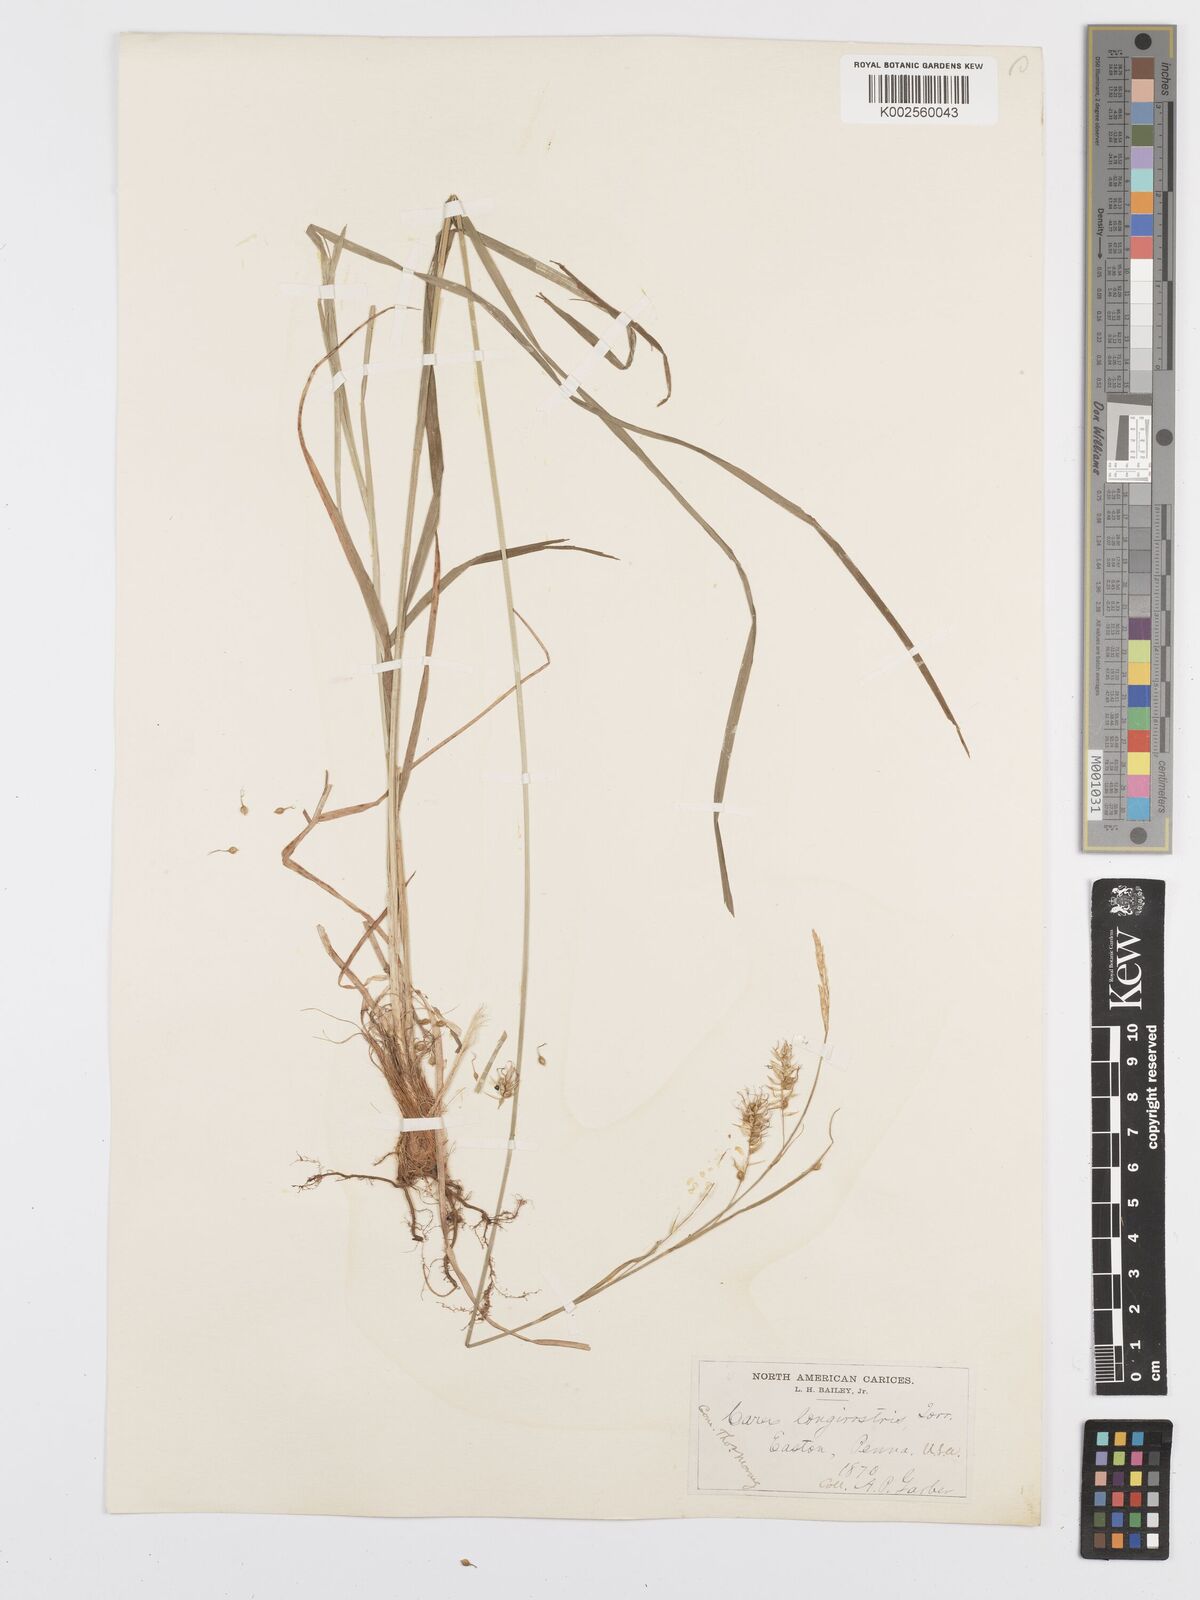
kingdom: Plantae
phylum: Tracheophyta
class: Liliopsida
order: Poales
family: Cyperaceae
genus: Carex
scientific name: Carex sprengelii
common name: Long-beaked sedge
